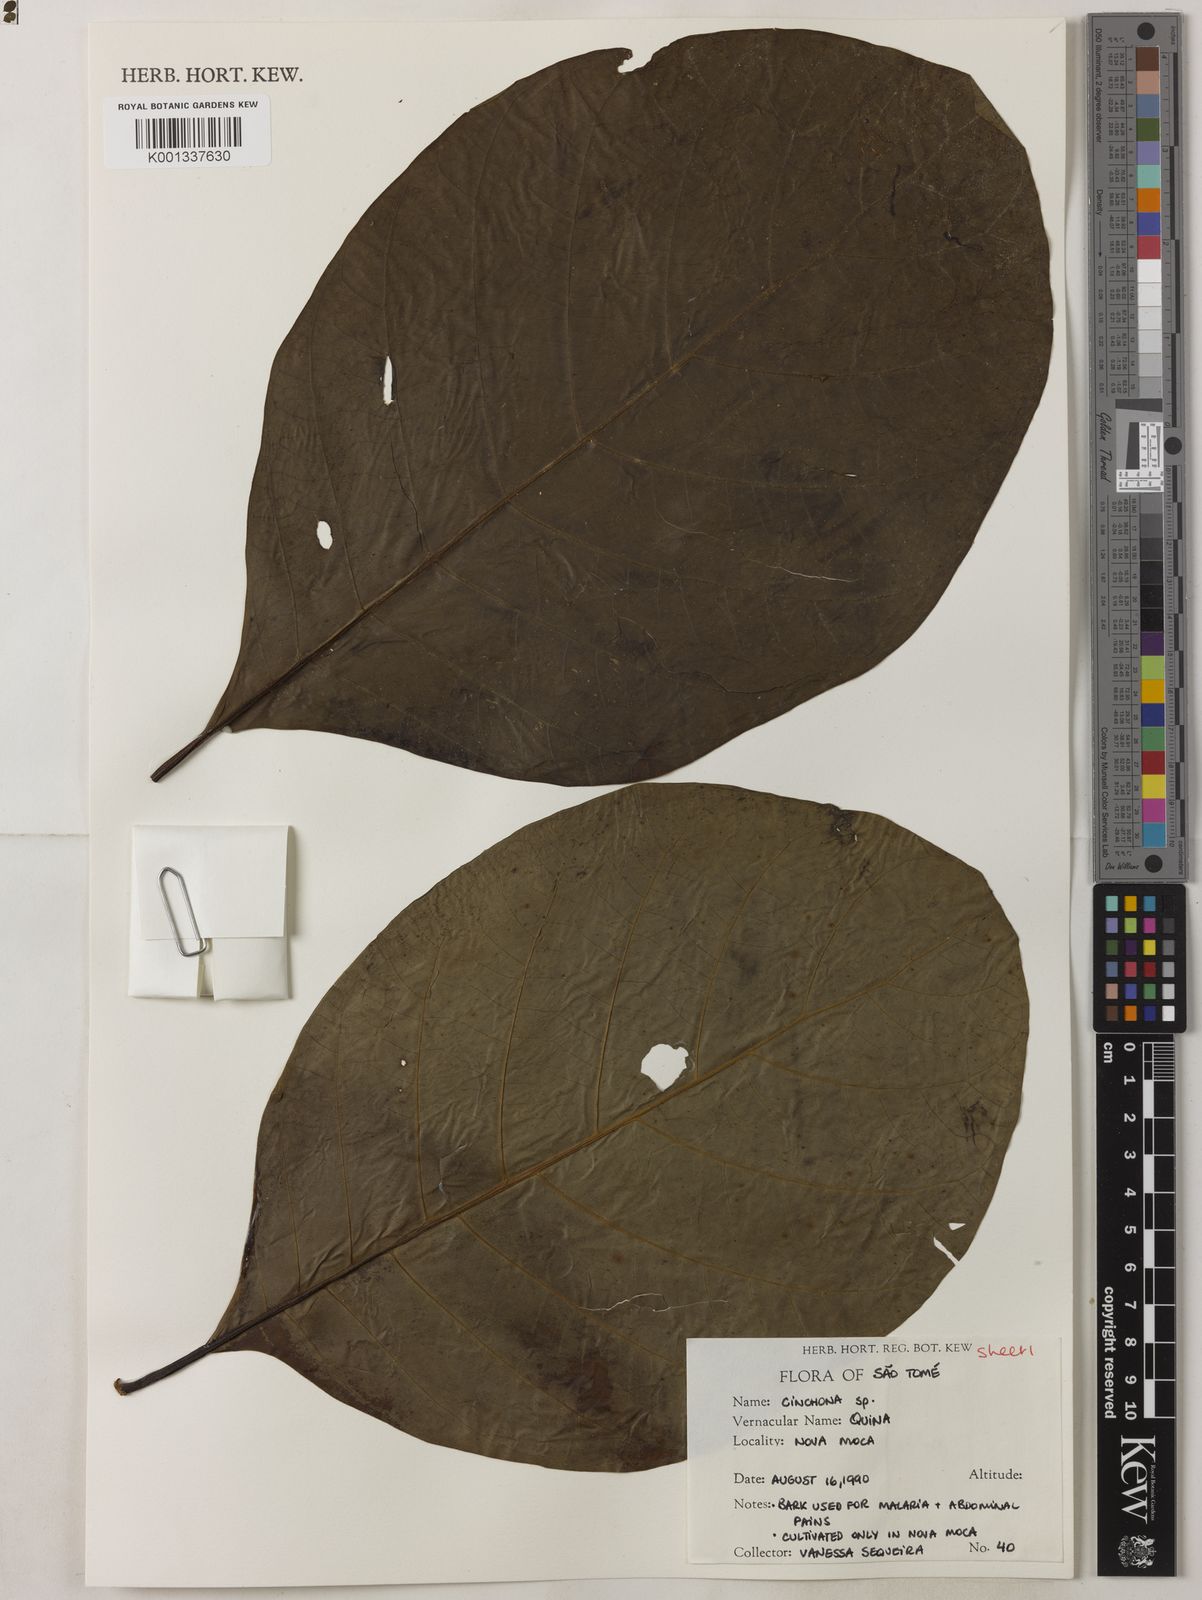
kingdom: Plantae
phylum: Tracheophyta
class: Magnoliopsida
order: Gentianales
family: Rubiaceae
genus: Cinchona
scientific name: Cinchona pubescens
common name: Quinine
